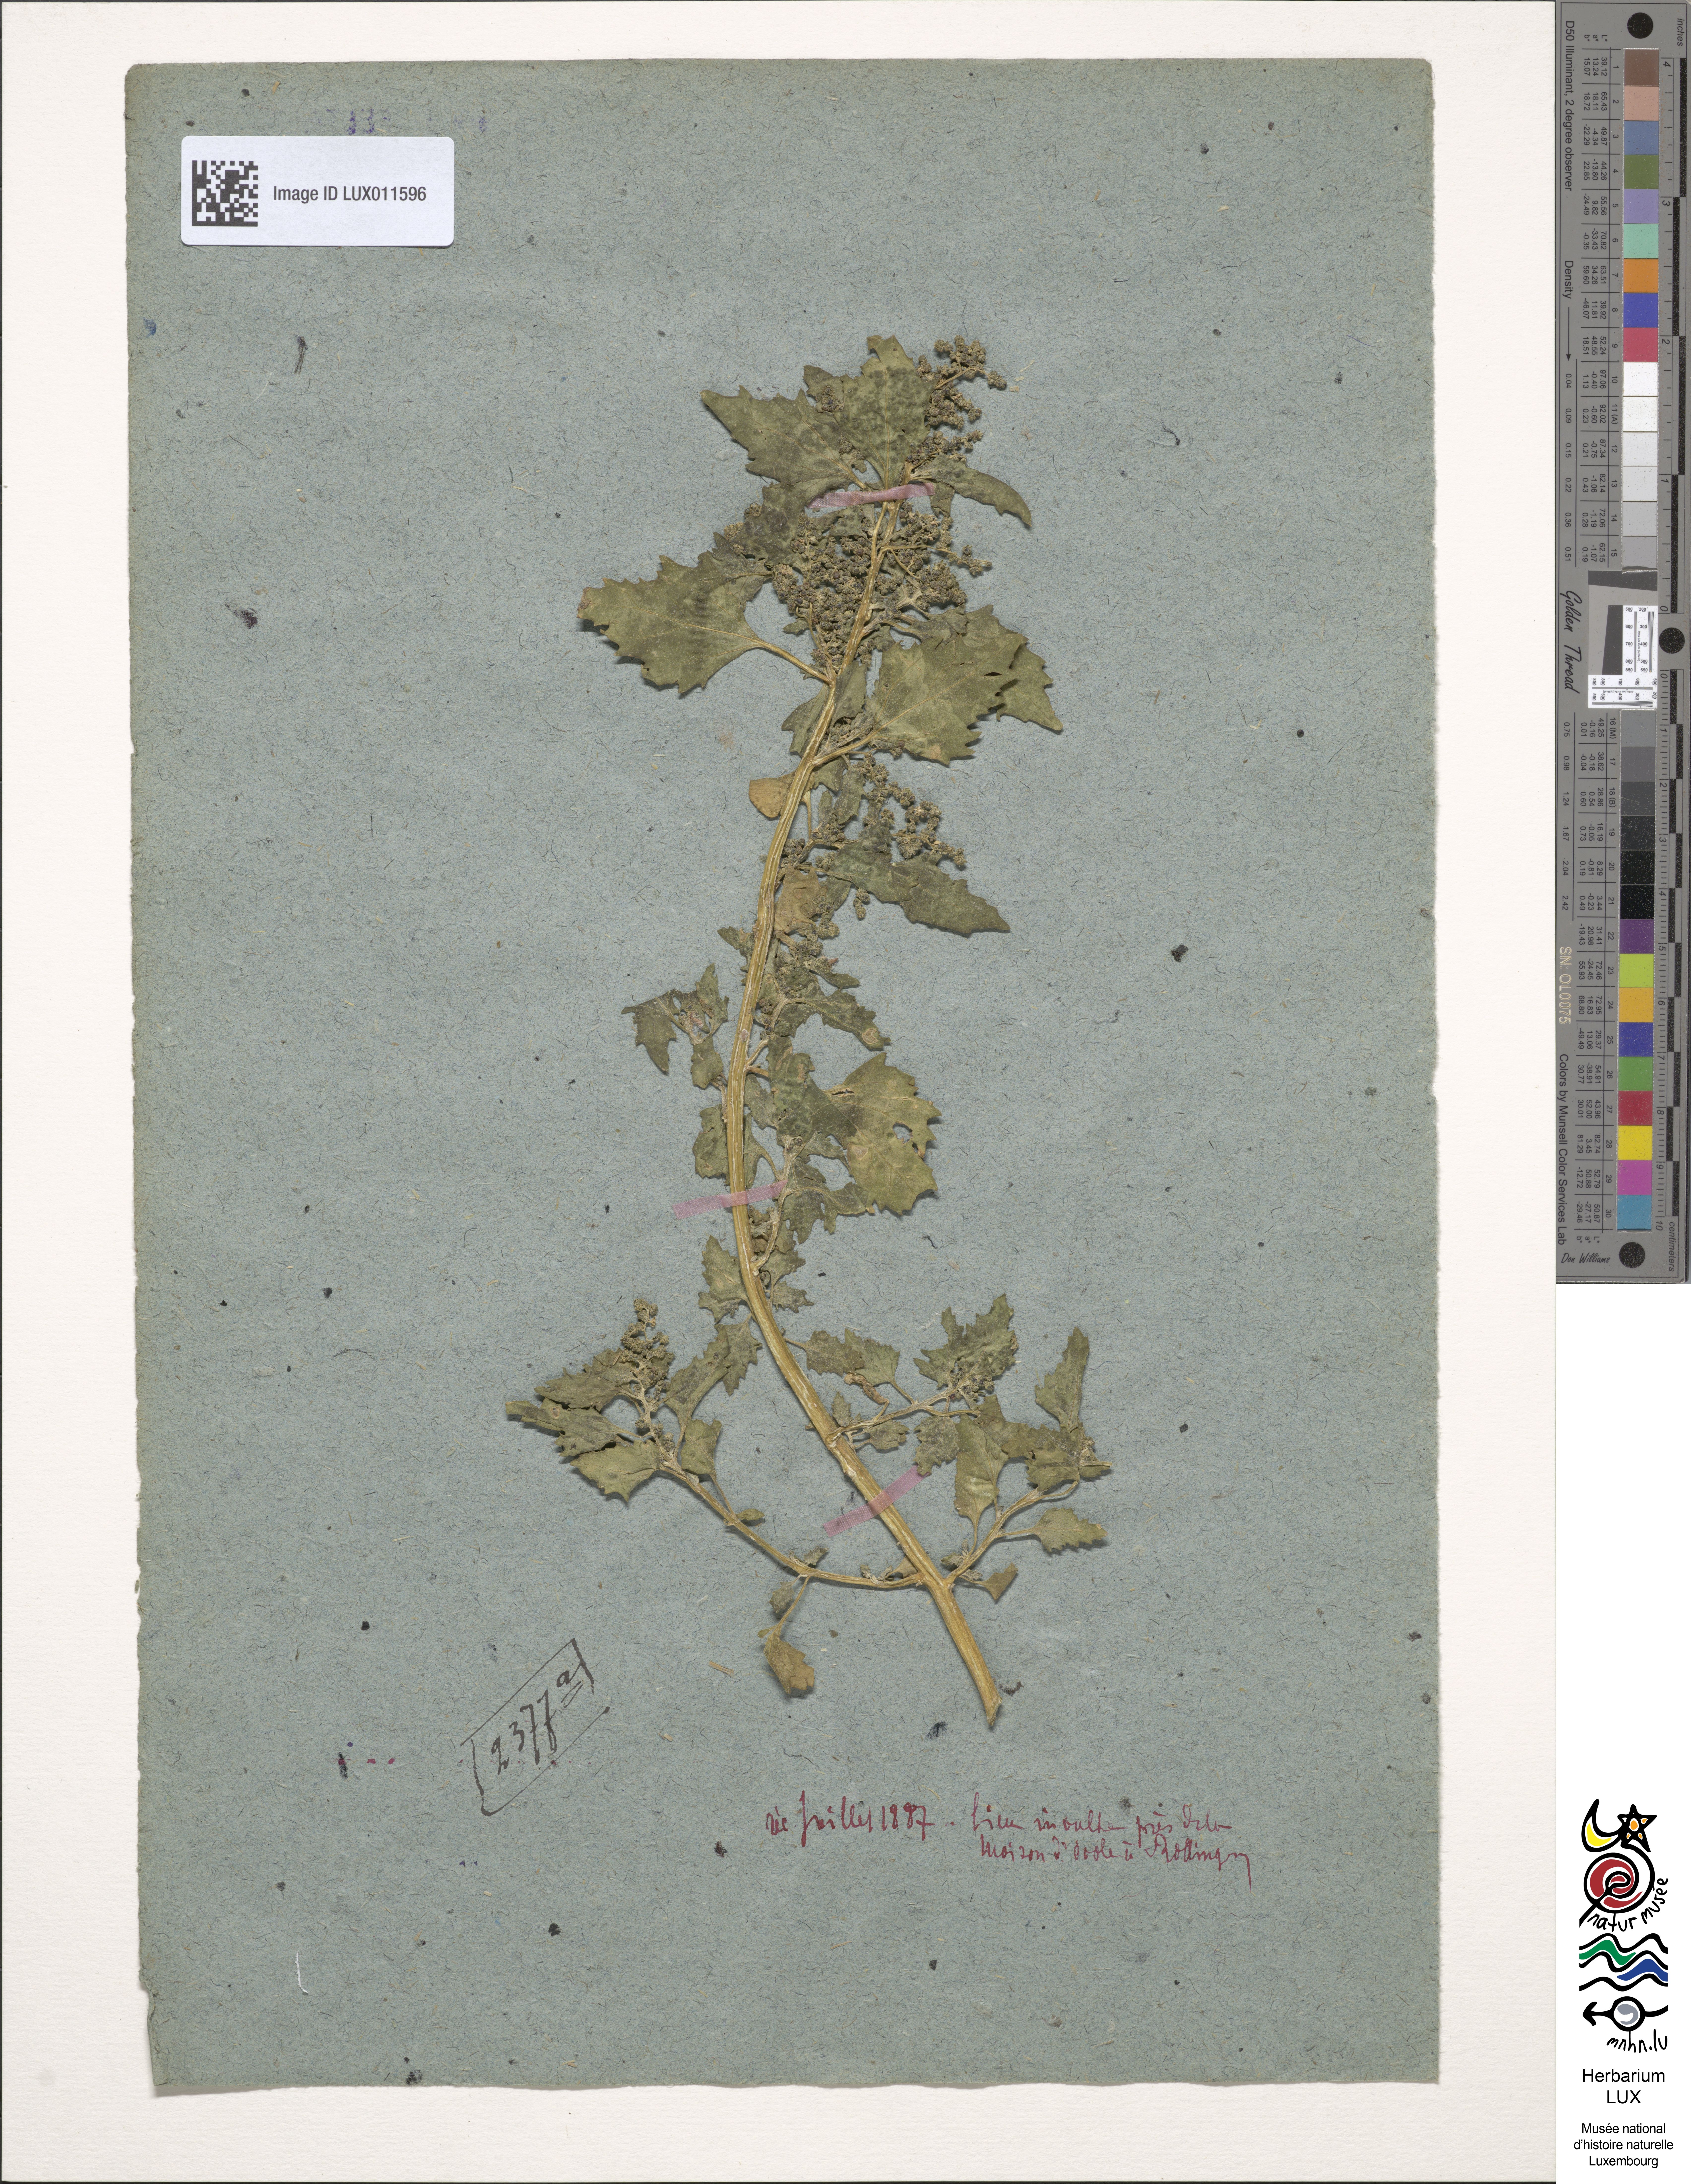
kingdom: Plantae
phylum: Tracheophyta
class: Magnoliopsida
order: Caryophyllales
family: Amaranthaceae
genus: Chenopodiastrum
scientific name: Chenopodiastrum murale
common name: Sowbane
